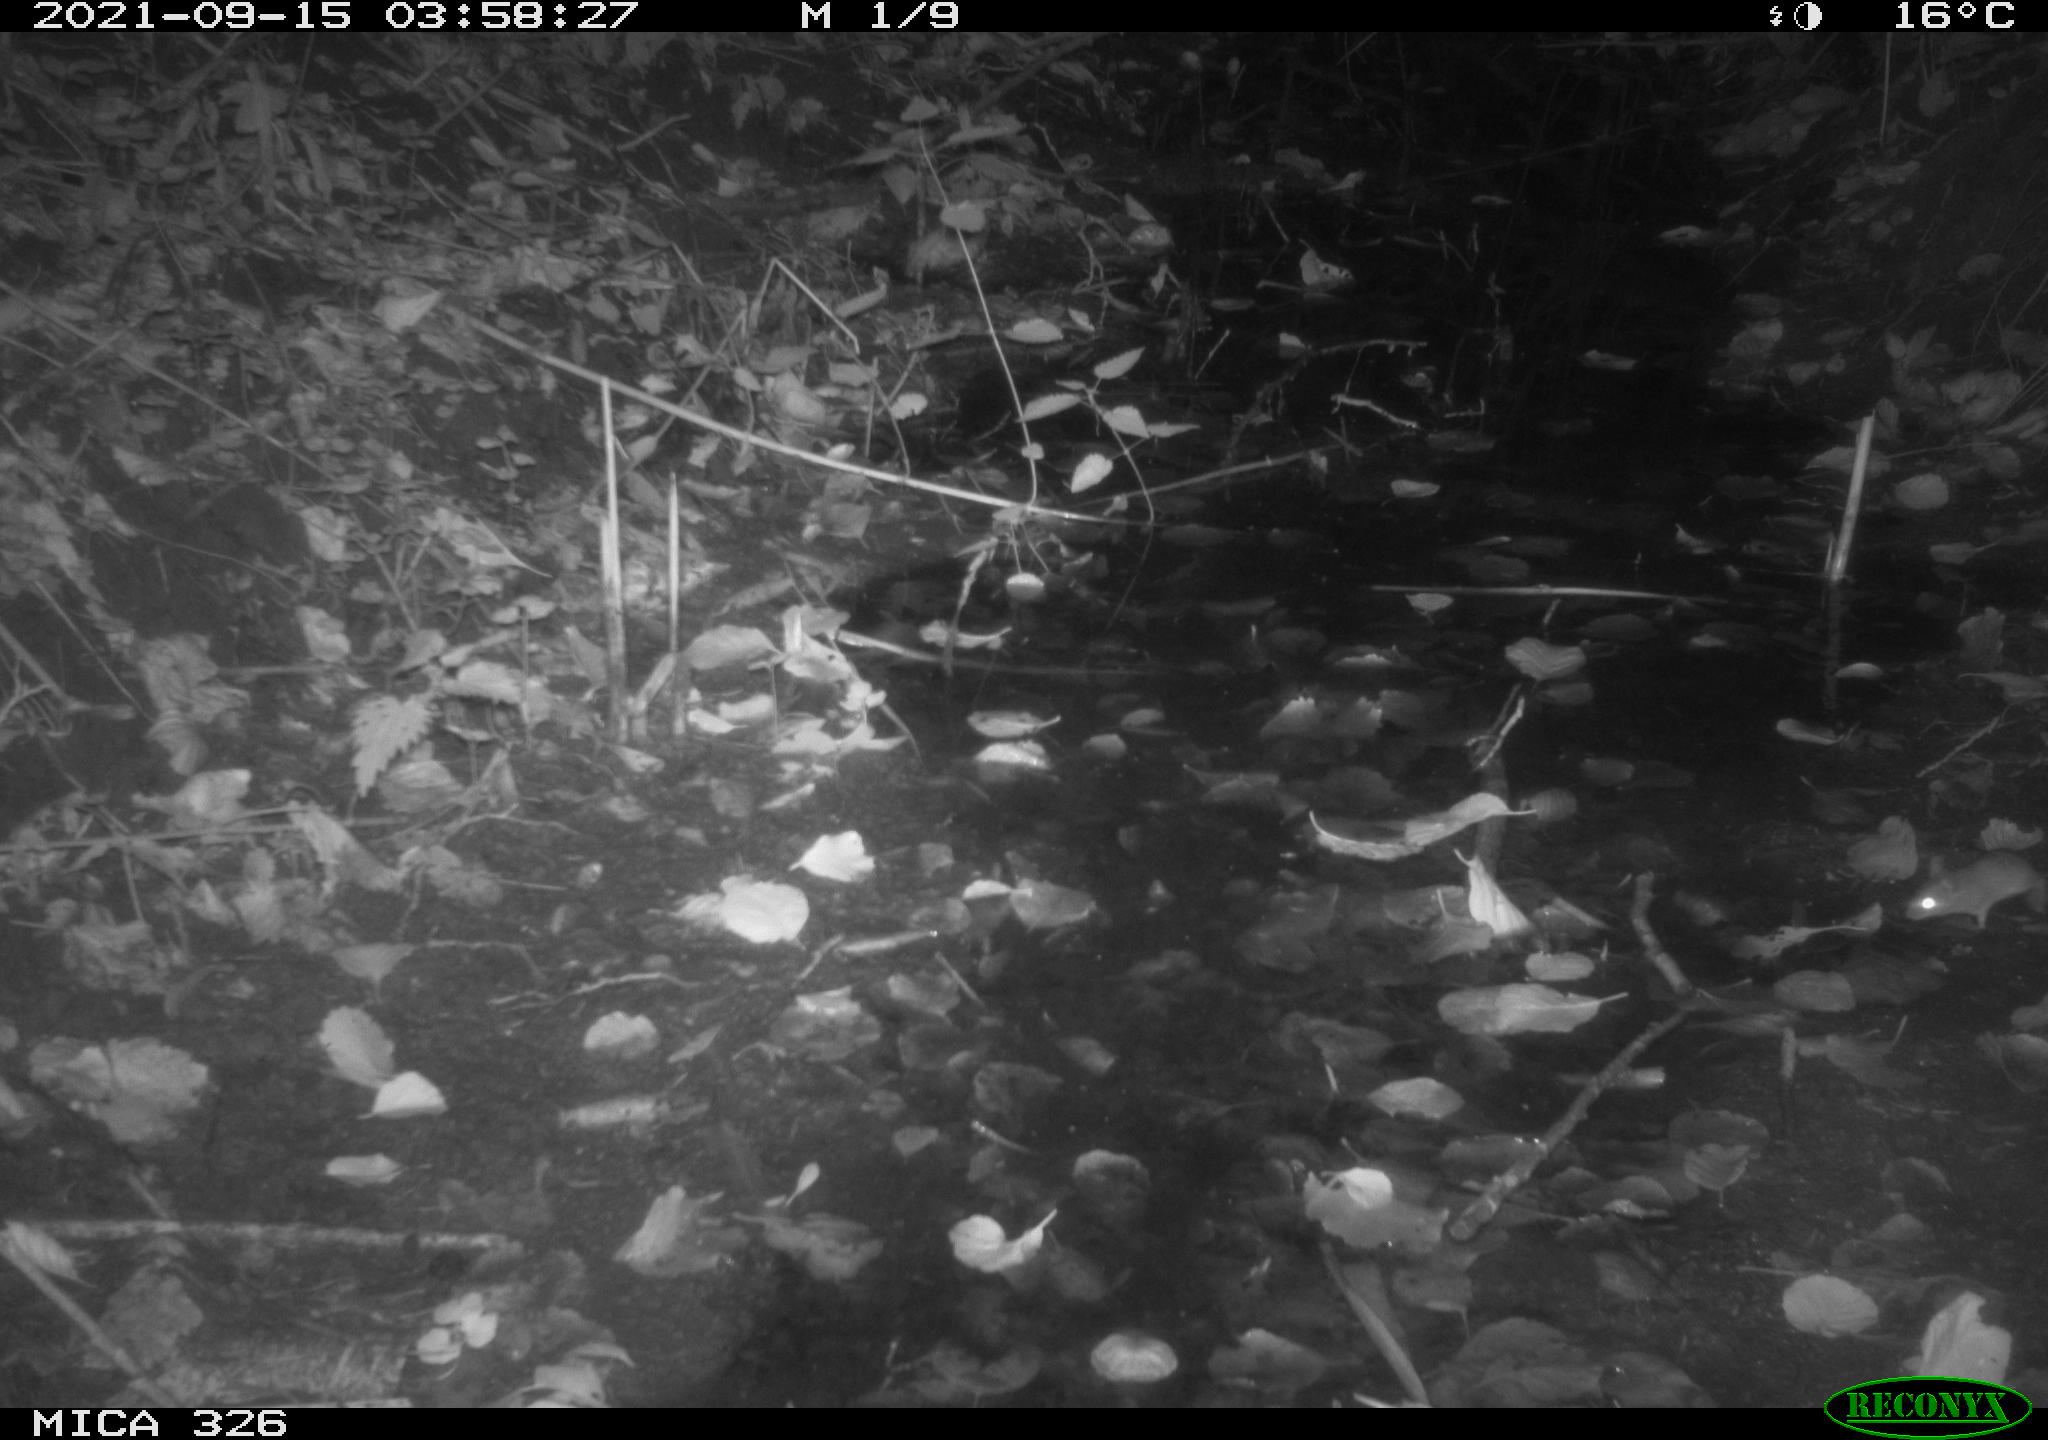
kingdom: Animalia
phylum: Chordata
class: Mammalia
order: Rodentia
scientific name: Rodentia
